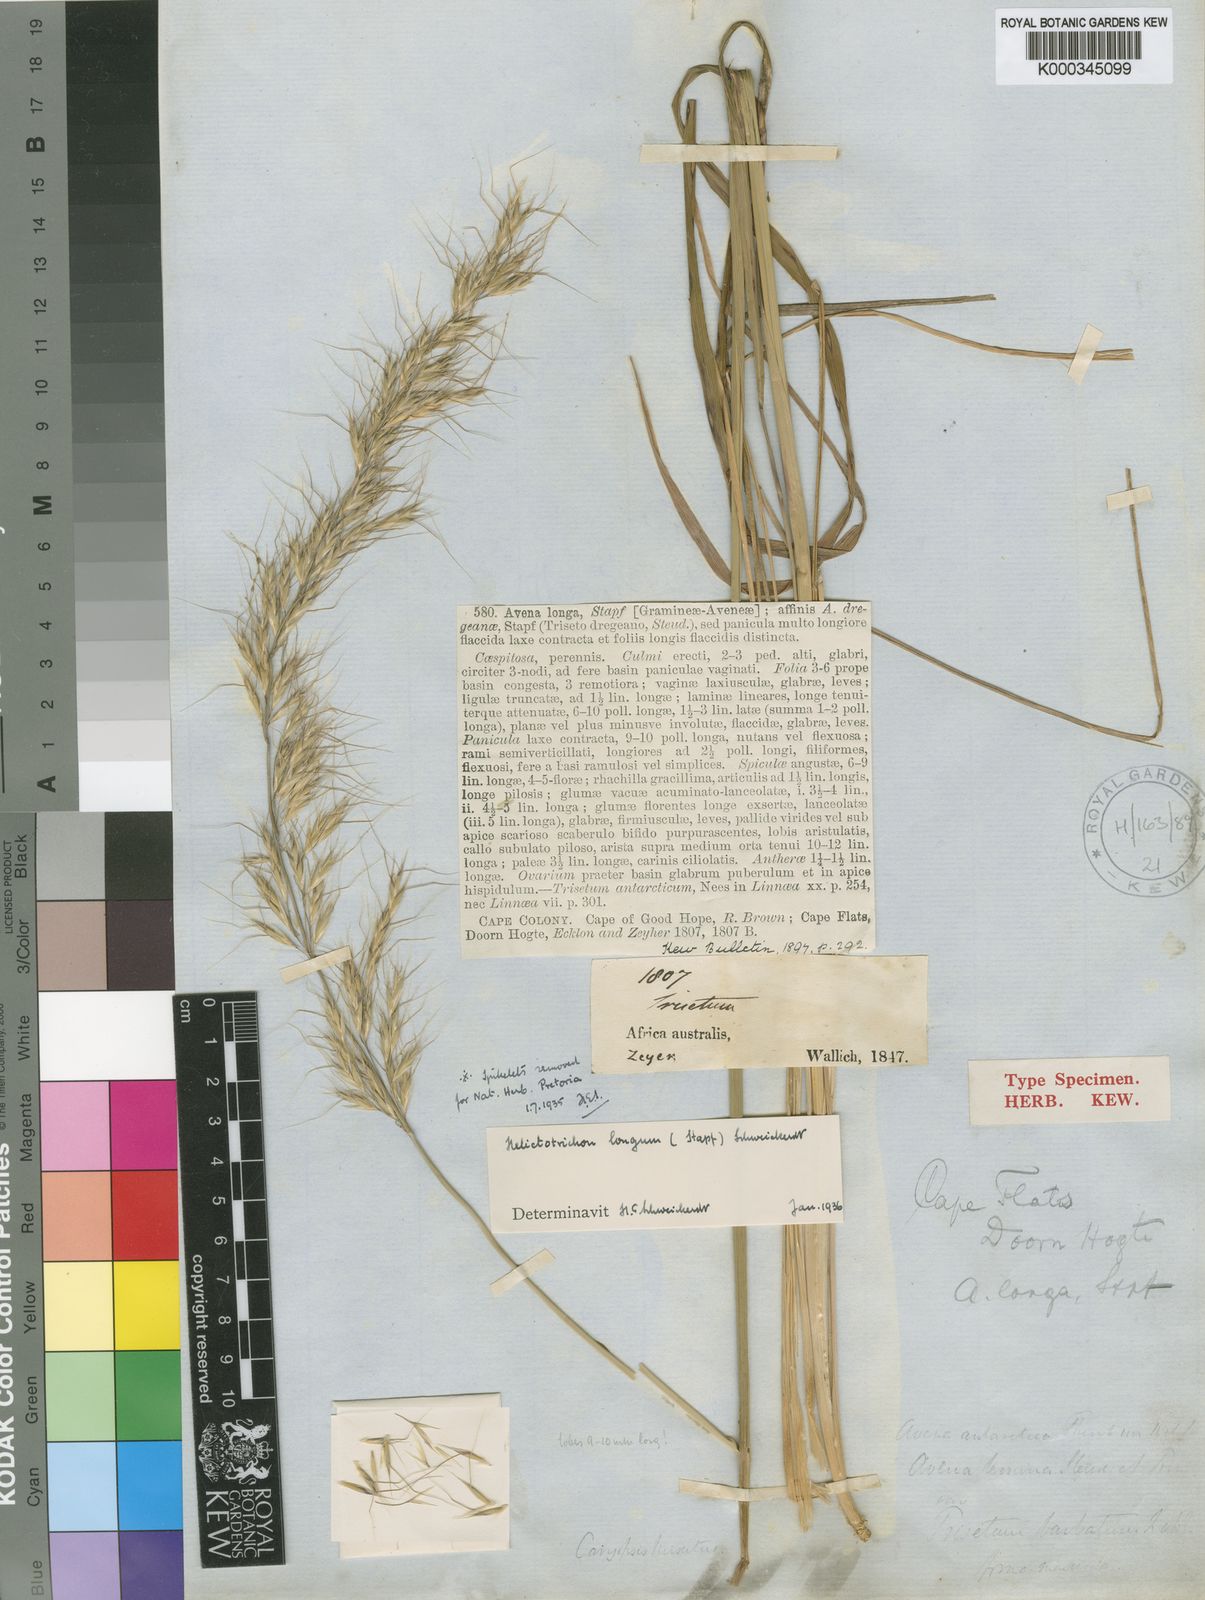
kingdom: Plantae
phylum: Tracheophyta
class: Liliopsida
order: Poales
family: Poaceae
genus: Trisetopsis
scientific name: Trisetopsis longa
